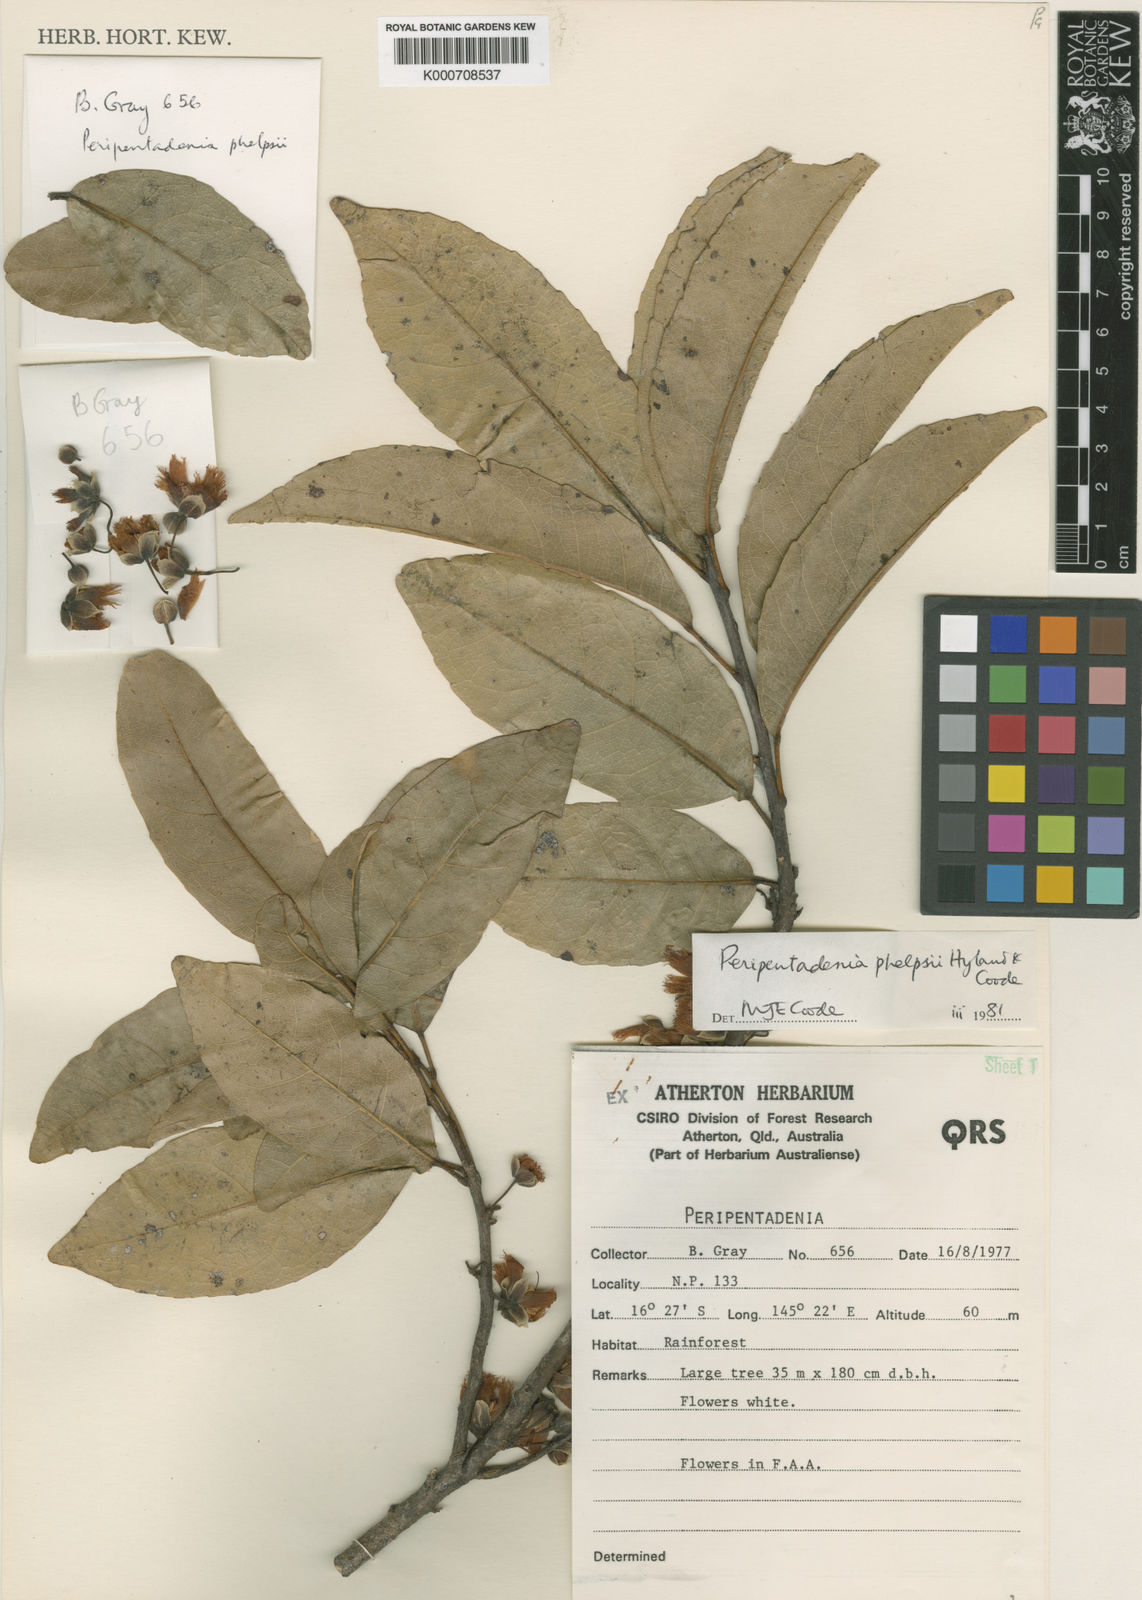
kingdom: Plantae
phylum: Tracheophyta
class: Magnoliopsida
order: Oxalidales
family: Elaeocarpaceae
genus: Peripentadenia
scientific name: Peripentadenia phelpsii
